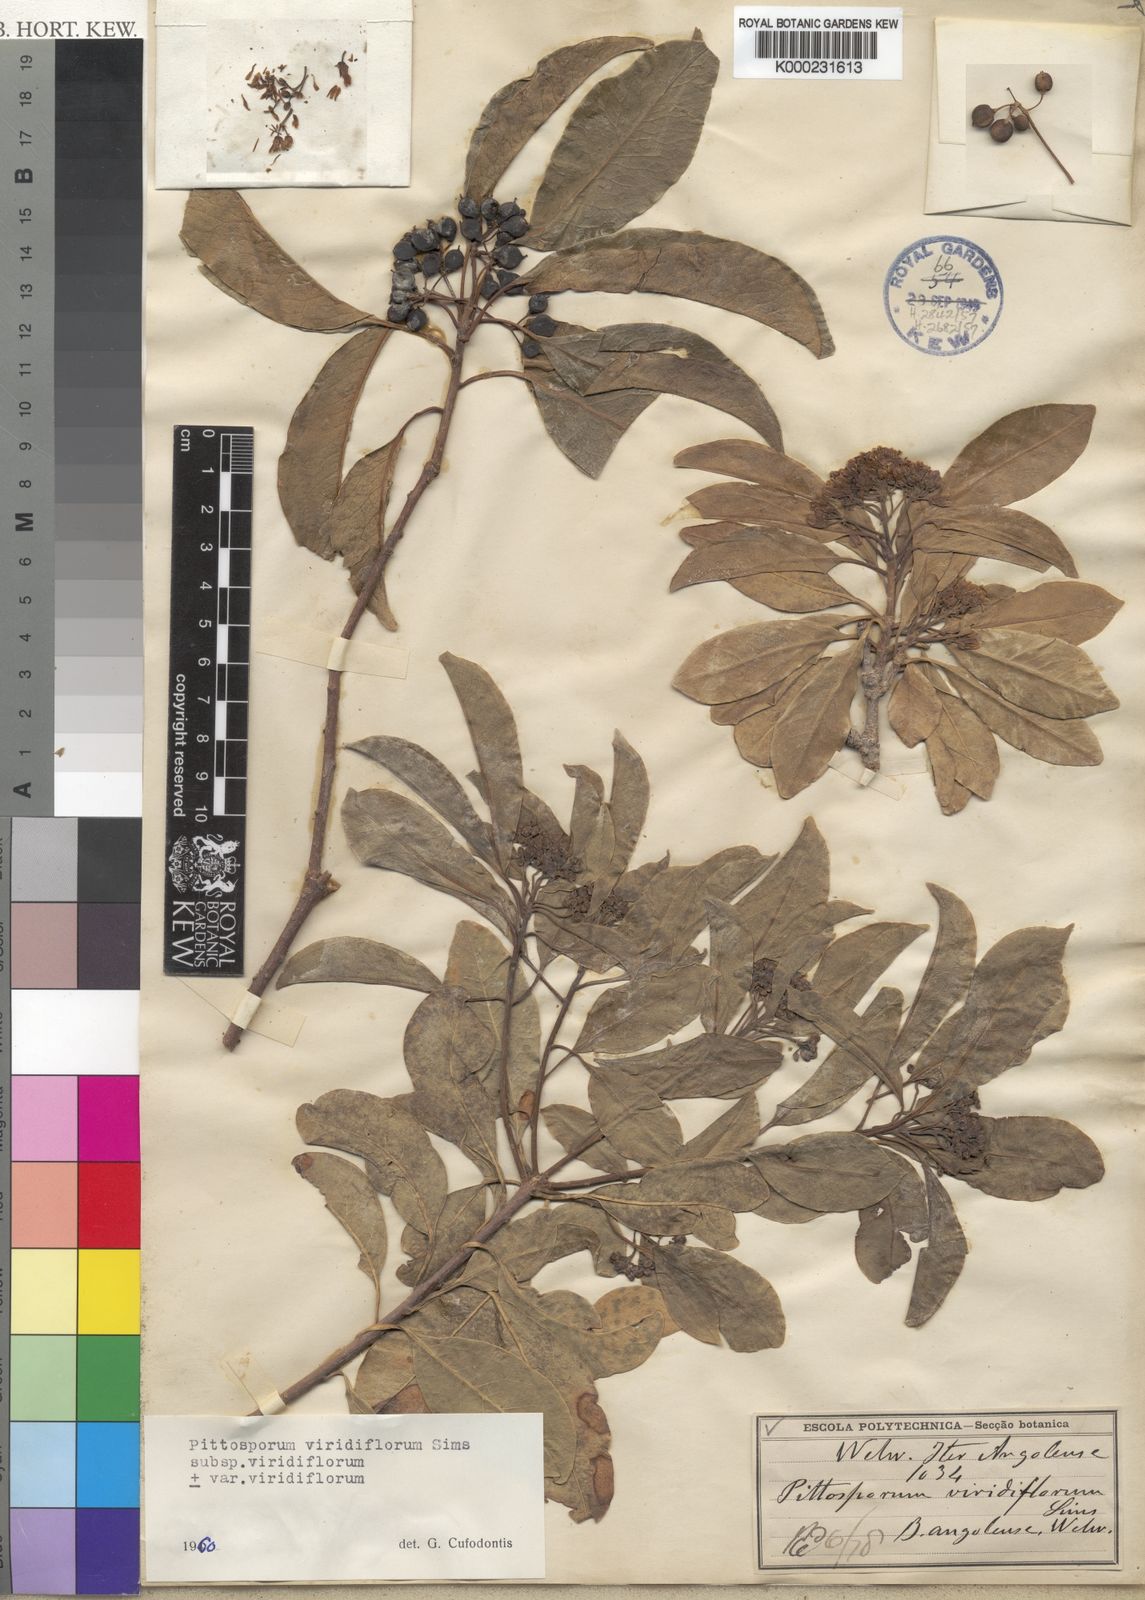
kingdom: Plantae
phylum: Tracheophyta
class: Magnoliopsida
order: Apiales
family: Pittosporaceae
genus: Pittosporum
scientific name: Pittosporum viridiflorum
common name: Cape cheesewood
